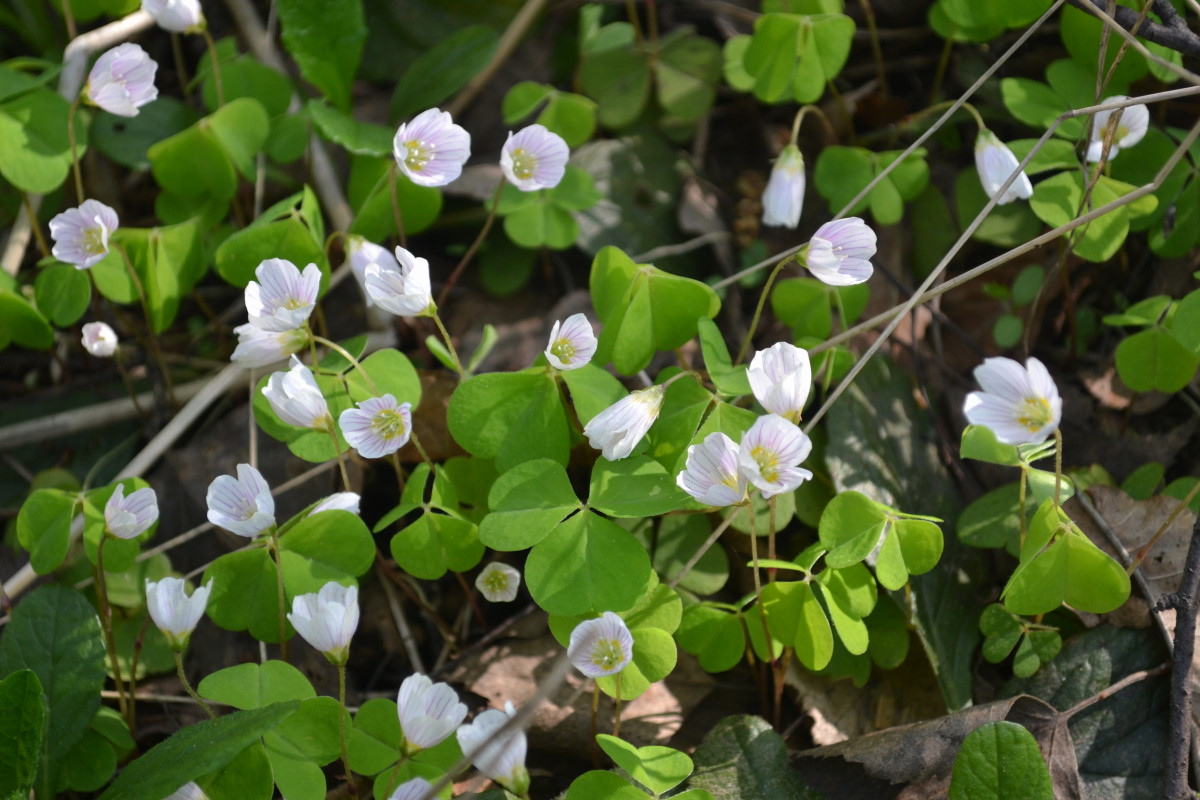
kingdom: Plantae
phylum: Tracheophyta
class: Magnoliopsida
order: Oxalidales
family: Oxalidaceae
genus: Oxalis
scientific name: Oxalis acetosella
